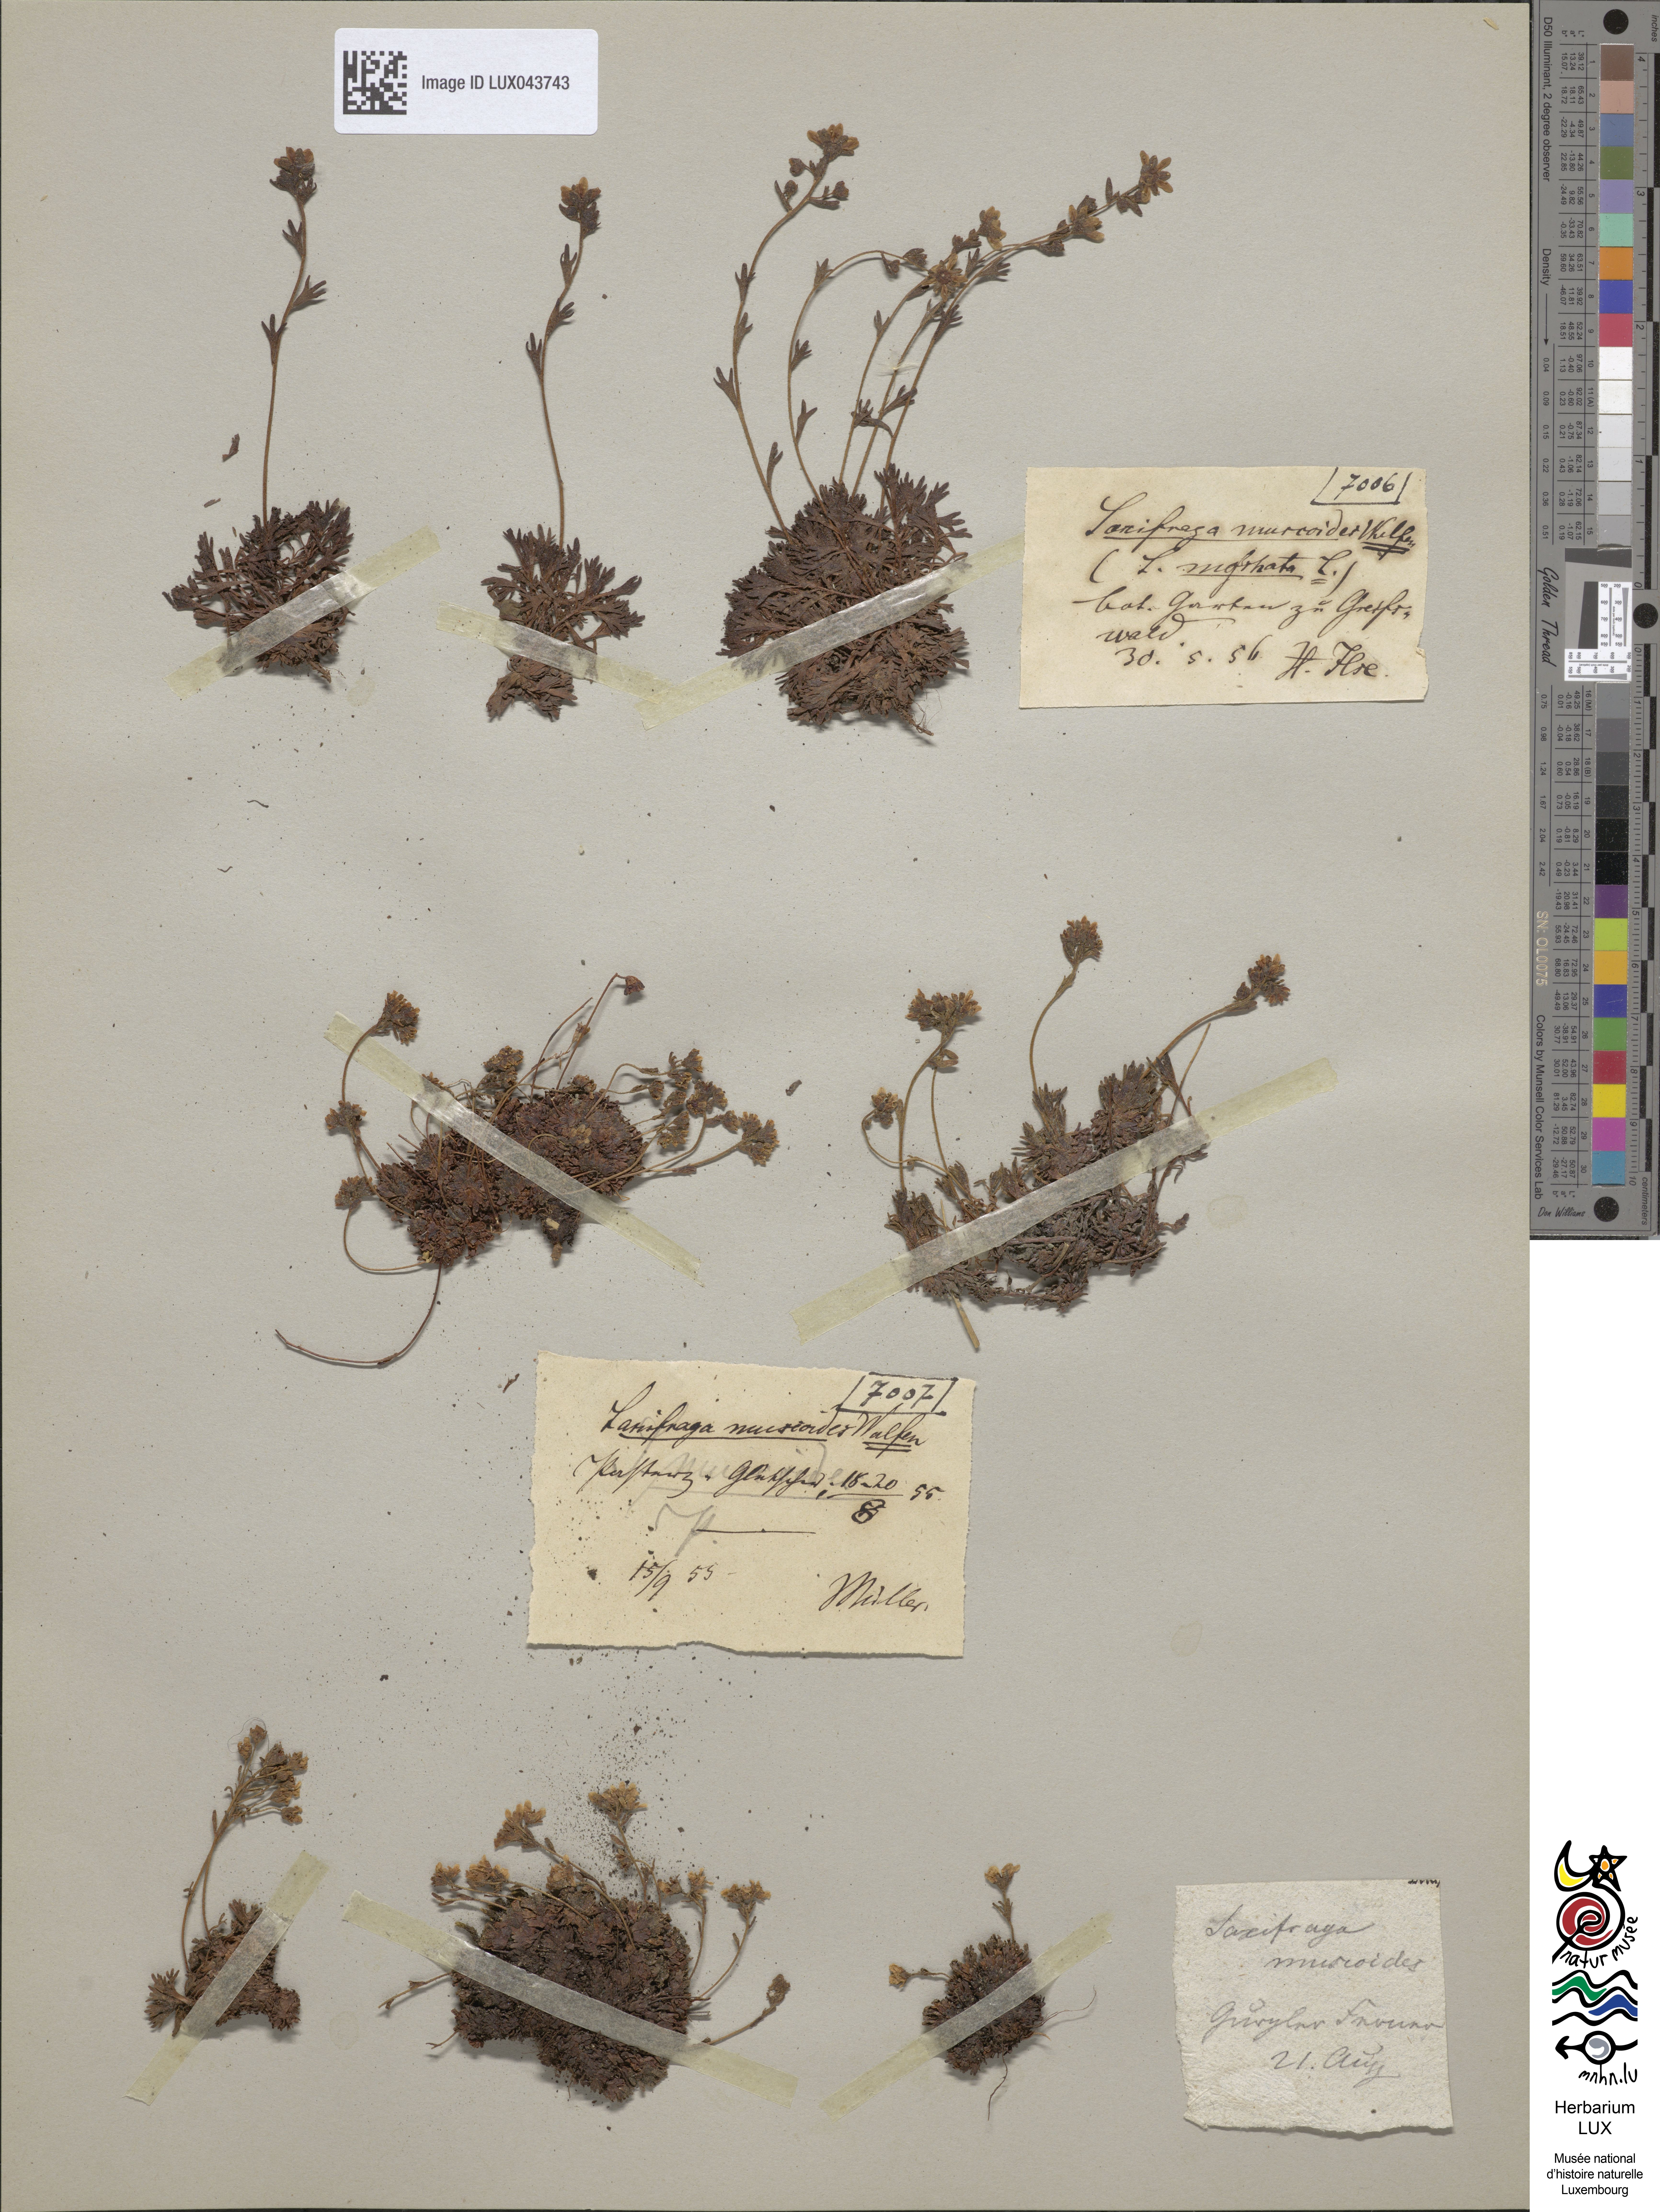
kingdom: Plantae
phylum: Tracheophyta
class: Magnoliopsida
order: Saxifragales
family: Saxifragaceae
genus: Saxifraga
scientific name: Saxifraga moschata
